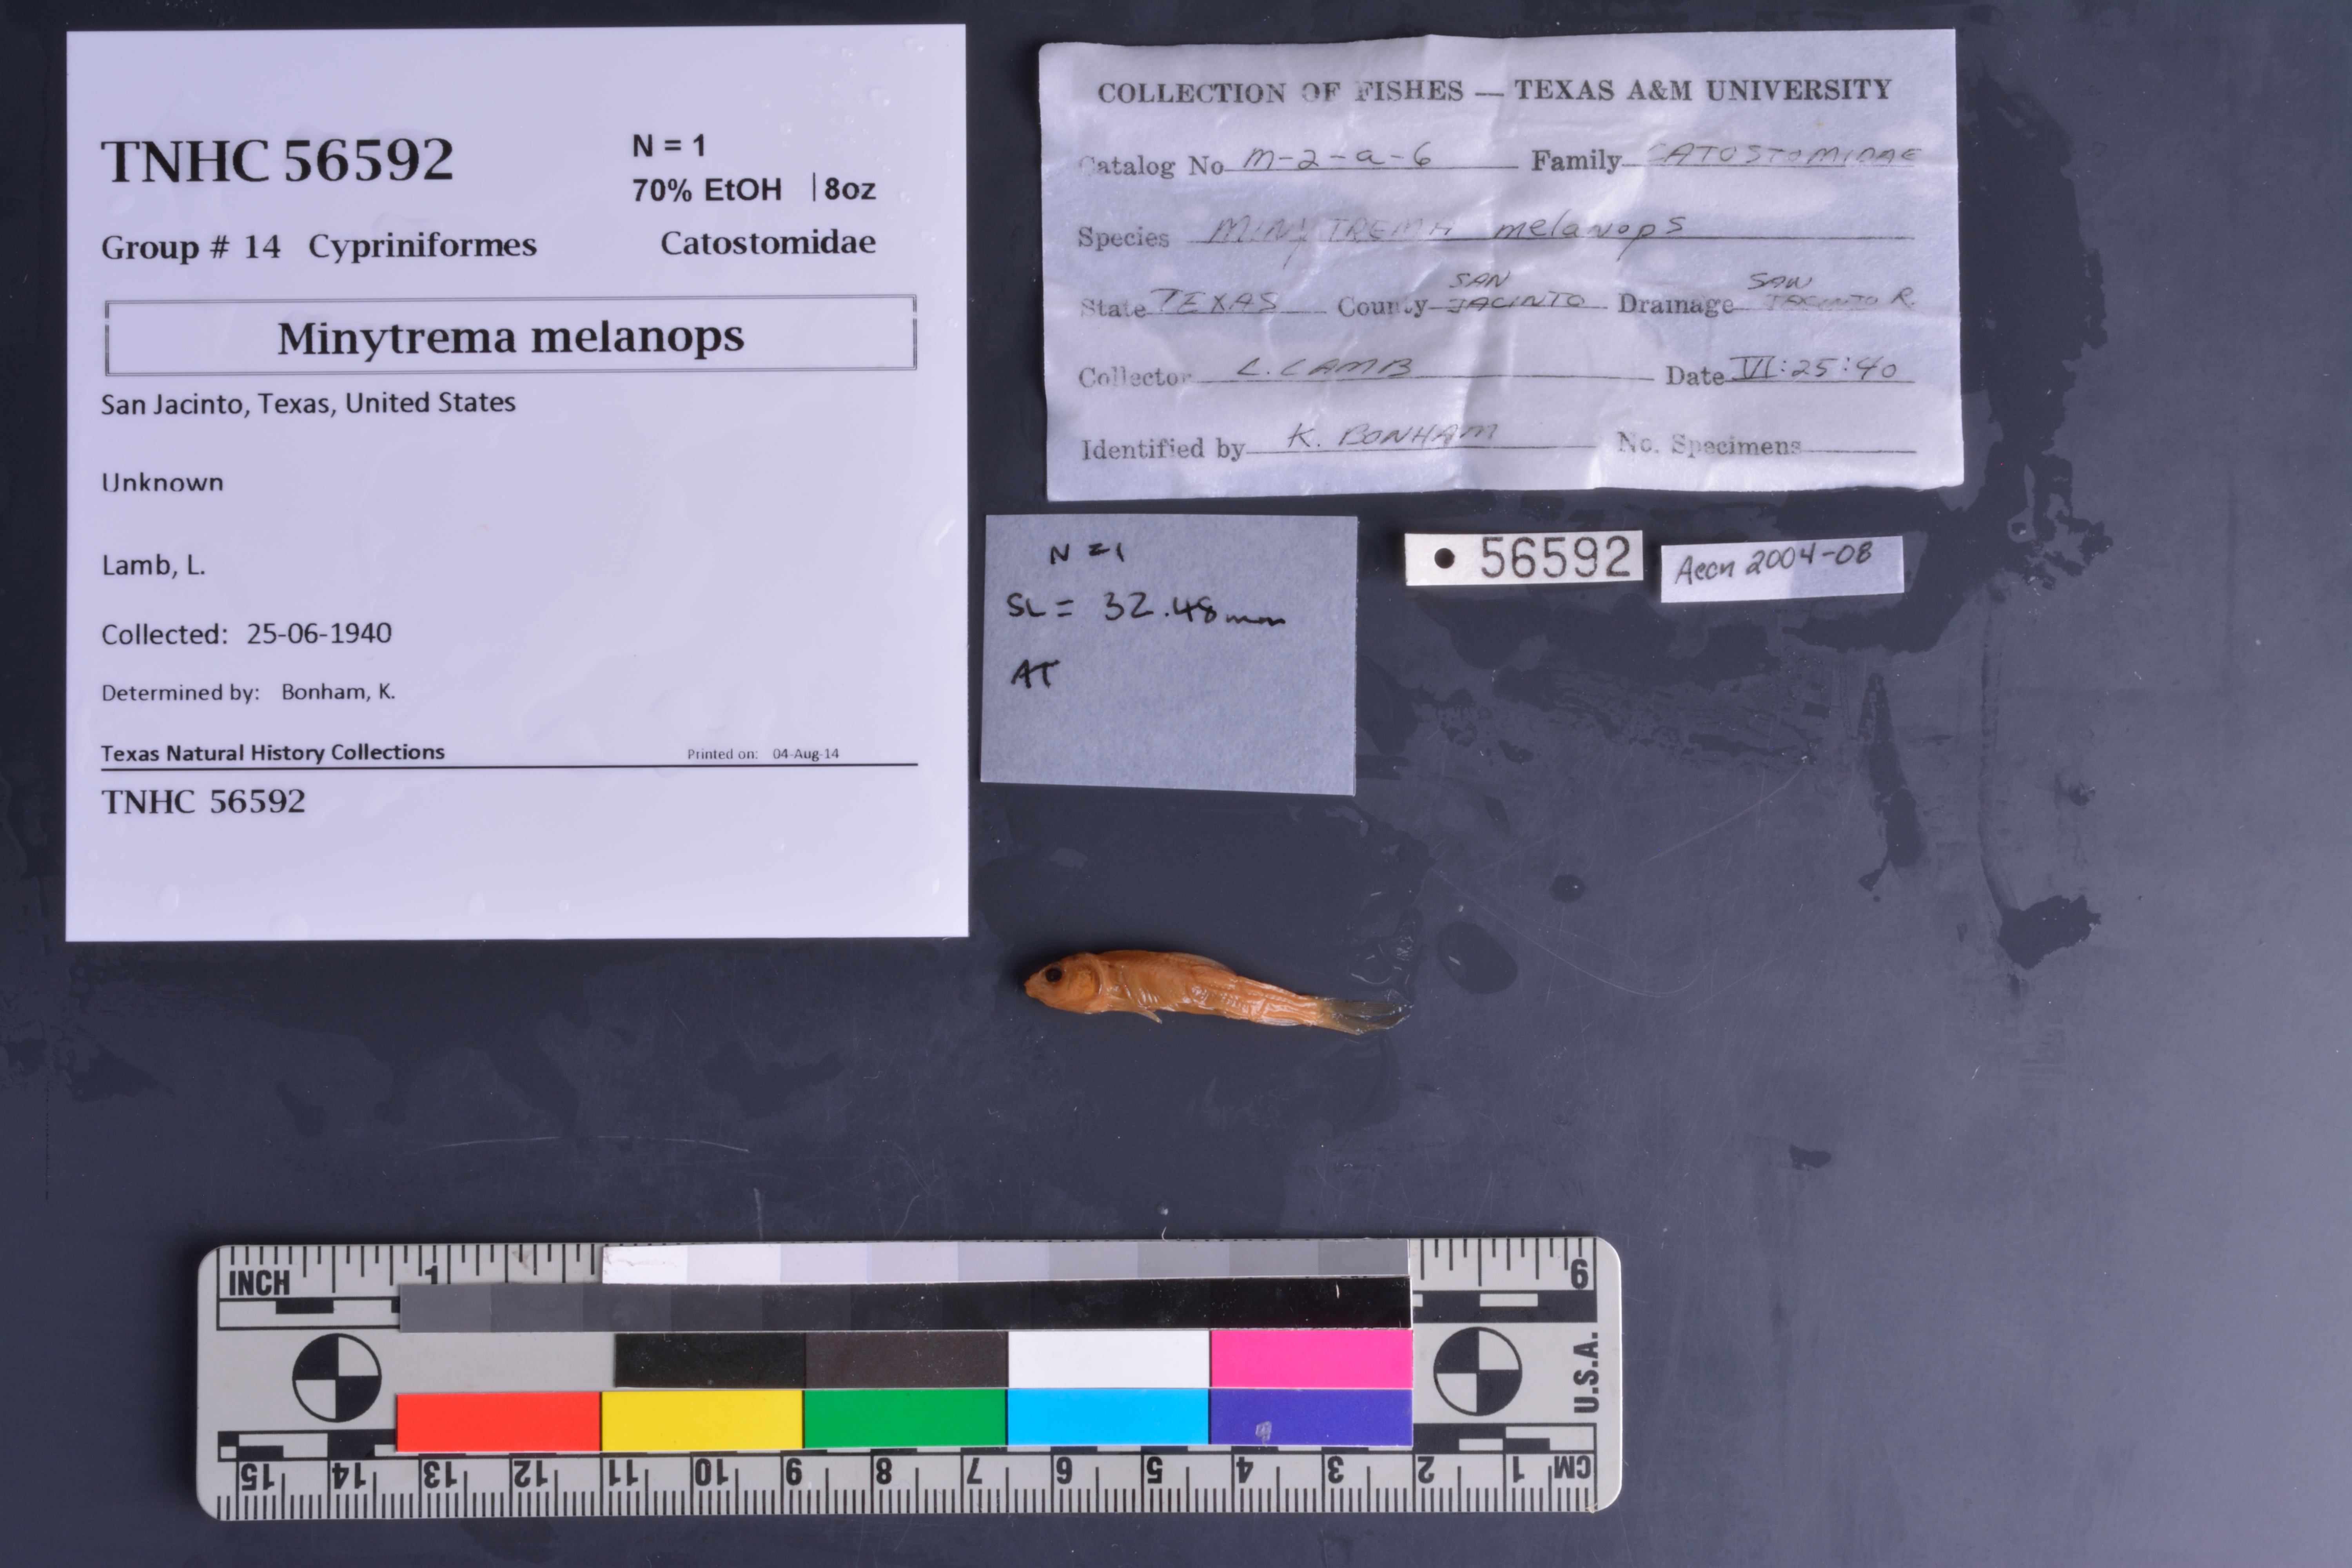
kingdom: Animalia
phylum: Chordata
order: Cypriniformes
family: Catostomidae
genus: Minytrema
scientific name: Minytrema melanops
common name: Spotted sucker
